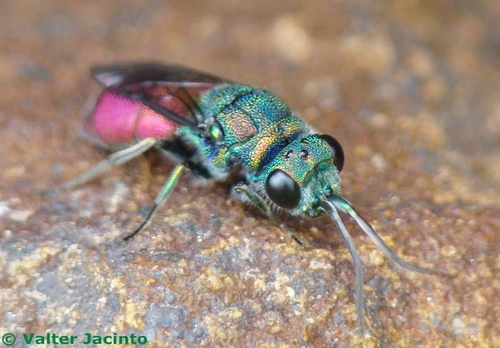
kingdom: Animalia
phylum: Arthropoda
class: Insecta
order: Hymenoptera
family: Chrysididae
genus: Chrysis
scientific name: Chrysis lusitanica
